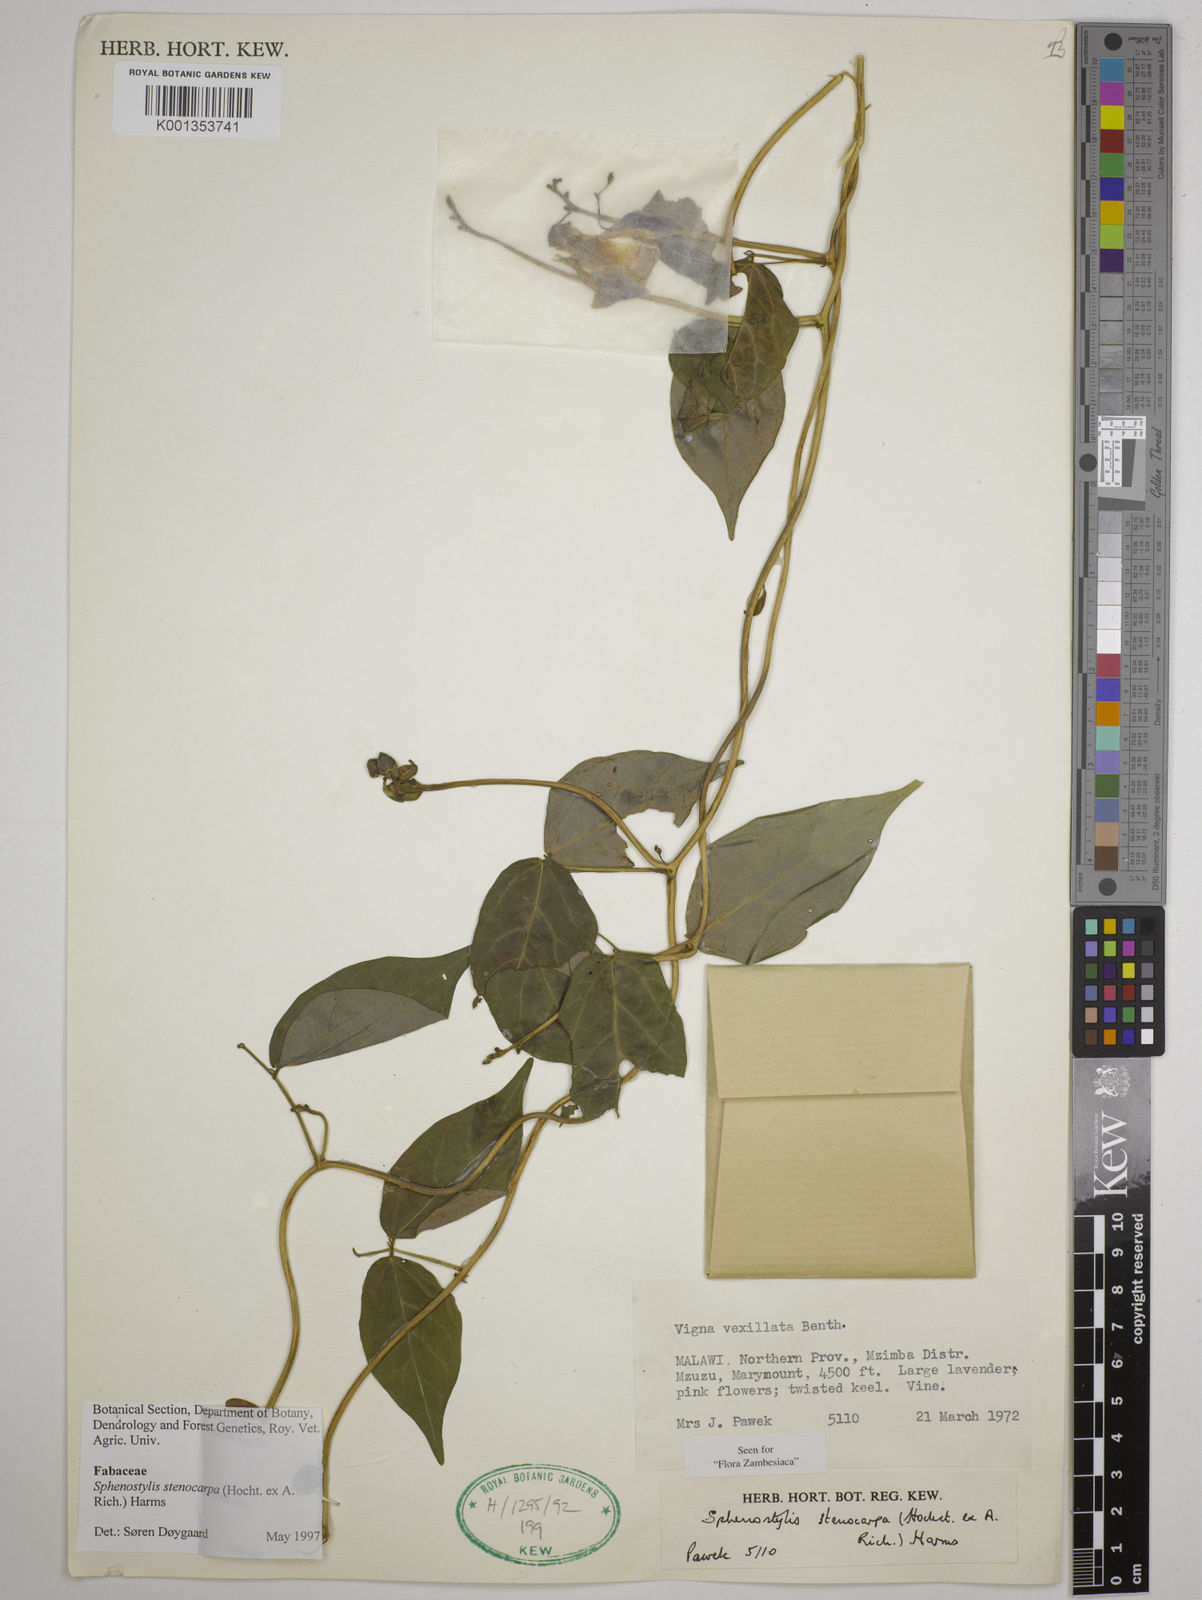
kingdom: Plantae
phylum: Tracheophyta
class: Magnoliopsida
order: Fabales
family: Fabaceae
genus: Sphenostylis
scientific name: Sphenostylis stenocarpa
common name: Yam-pea
